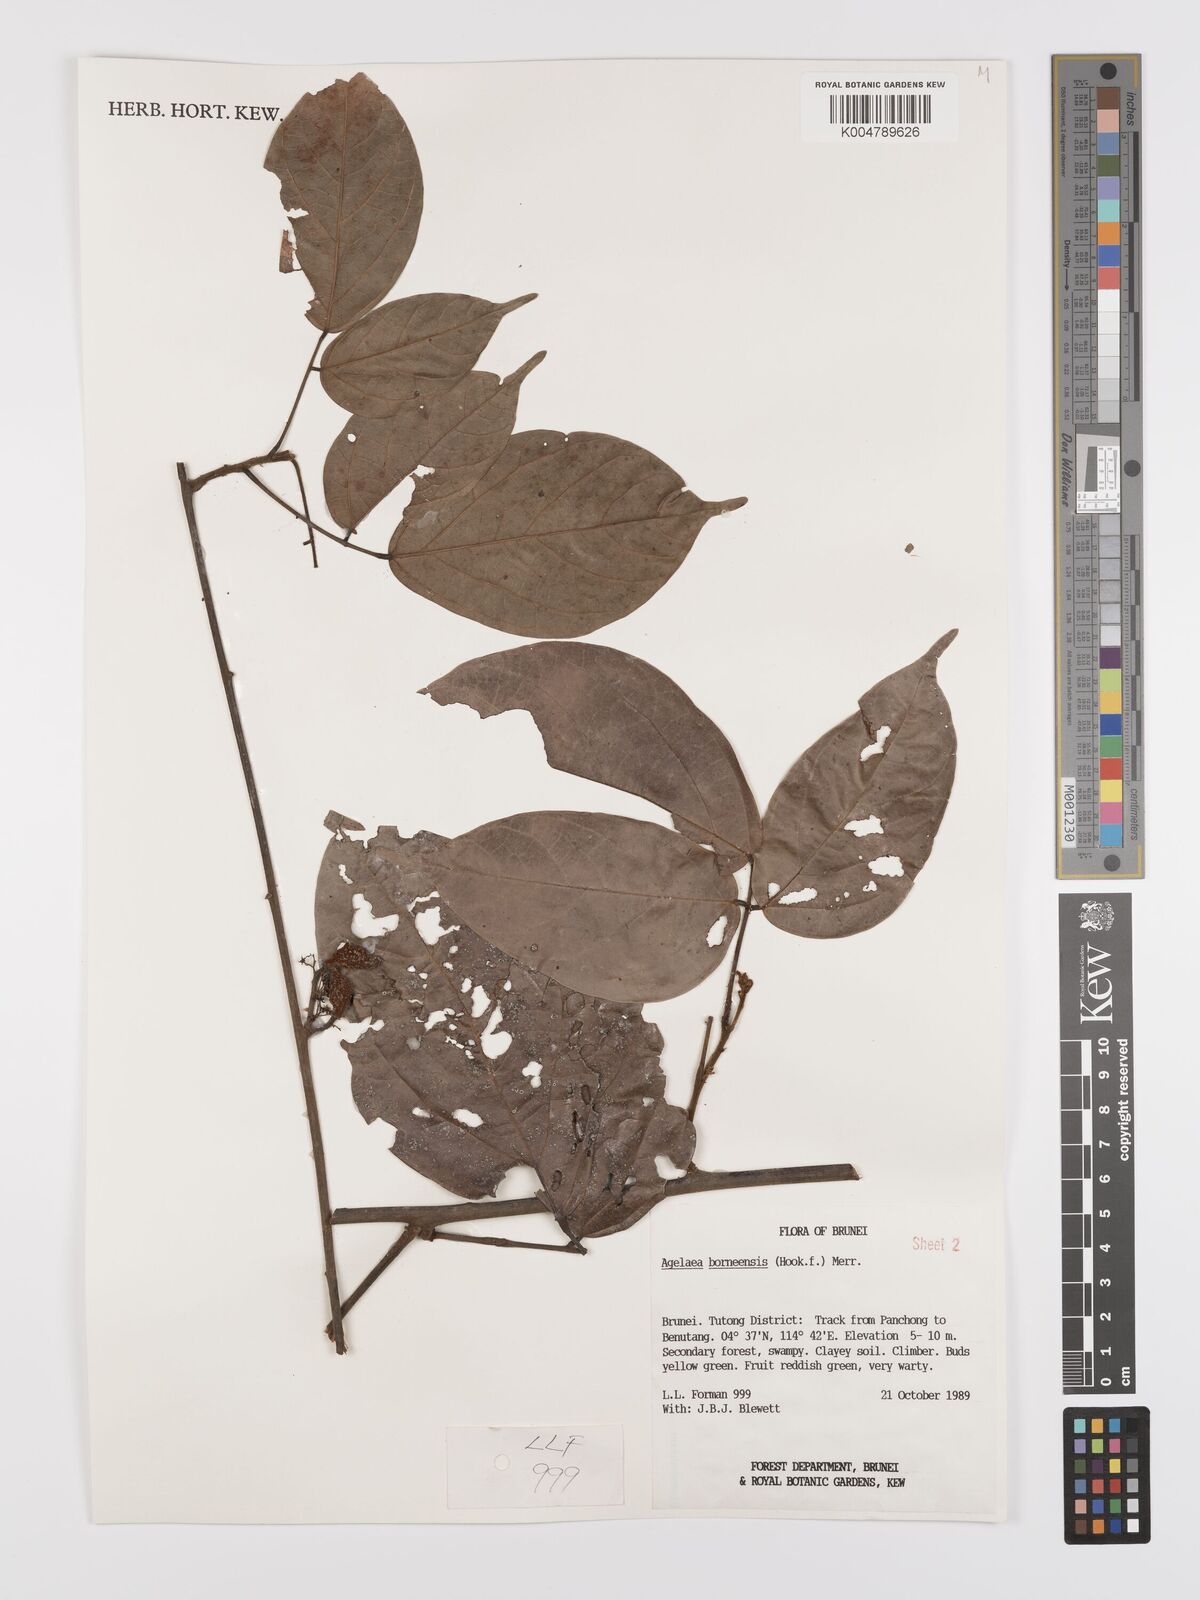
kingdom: Plantae
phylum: Tracheophyta
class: Magnoliopsida
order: Oxalidales
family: Connaraceae
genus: Agelaea
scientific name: Agelaea borneensis
